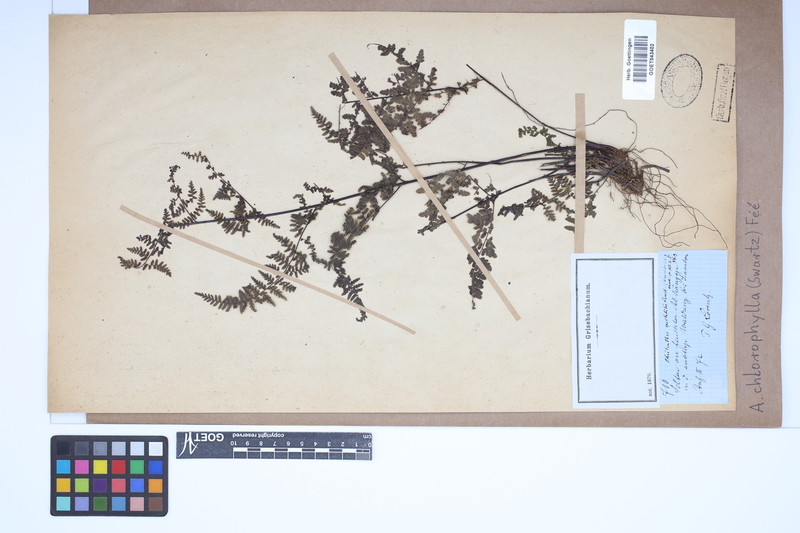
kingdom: Plantae
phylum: Tracheophyta
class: Polypodiopsida
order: Polypodiales
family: Pteridaceae
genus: Adiantopsis
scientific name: Adiantopsis chlorophylla
